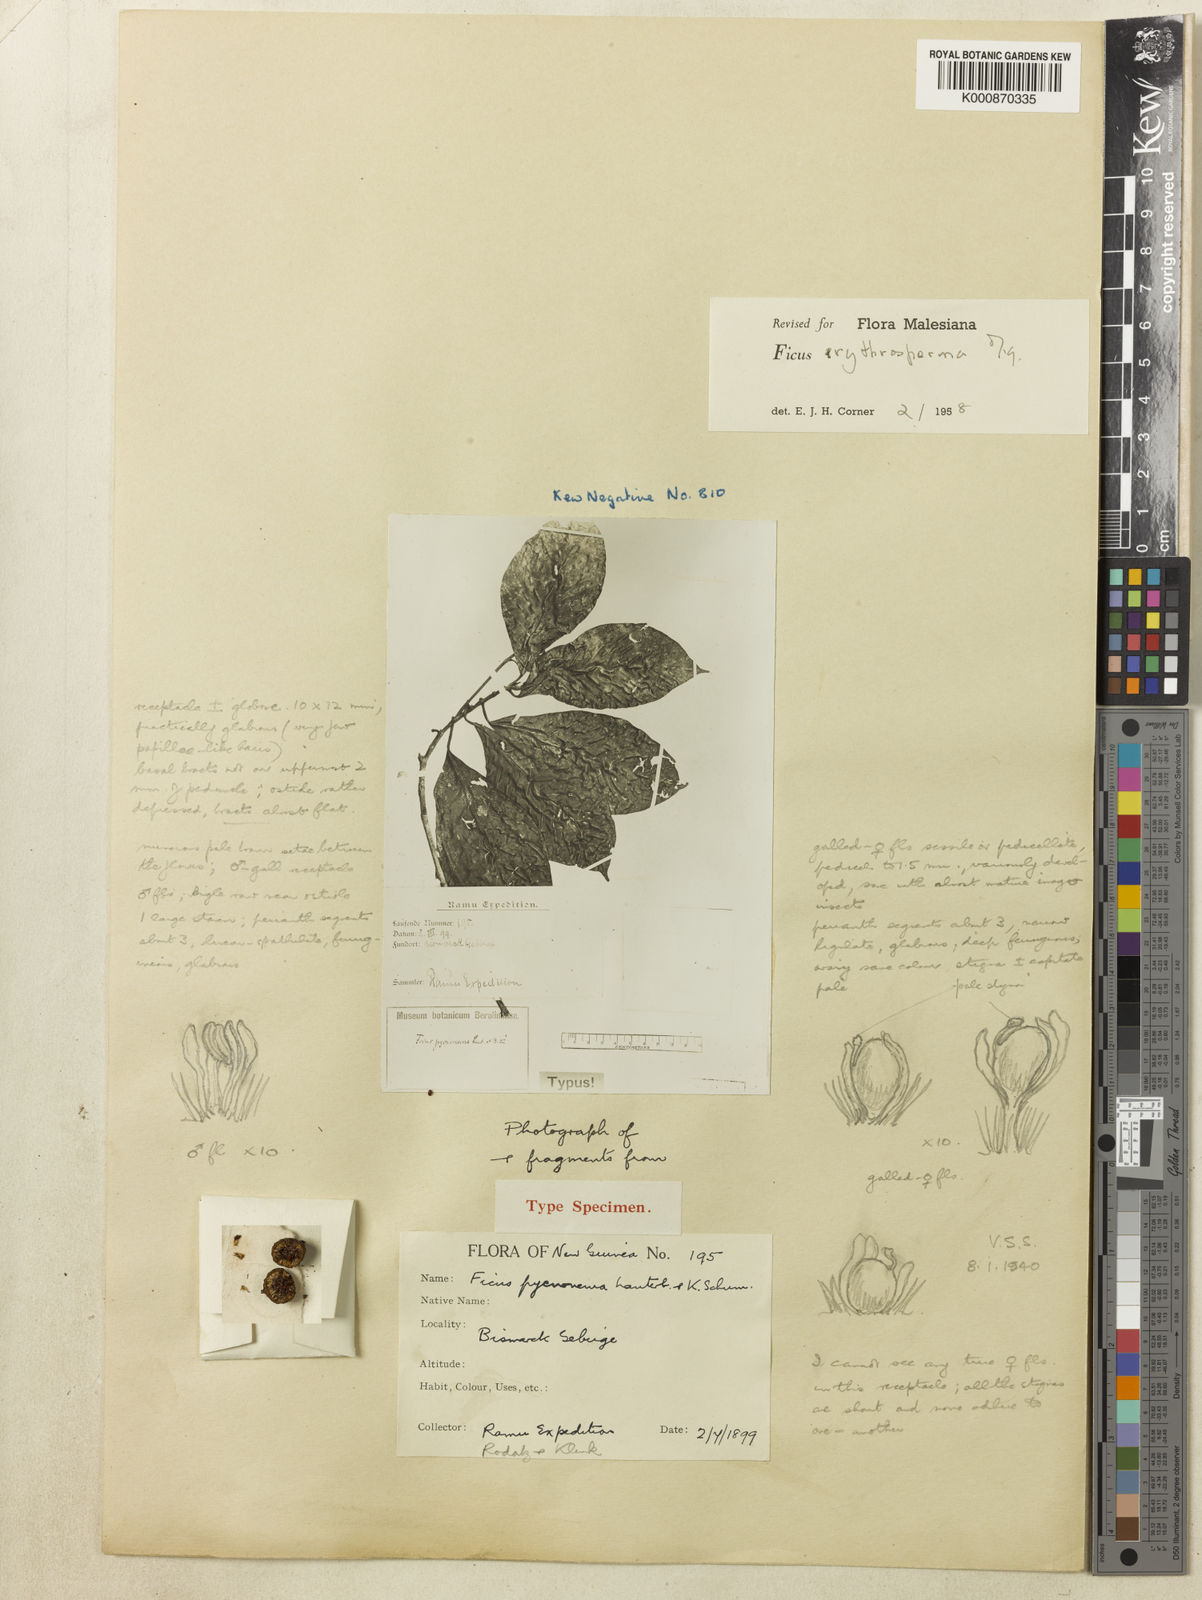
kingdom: Plantae
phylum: Tracheophyta
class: Magnoliopsida
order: Rosales
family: Moraceae
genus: Ficus
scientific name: Ficus erythrosperma
